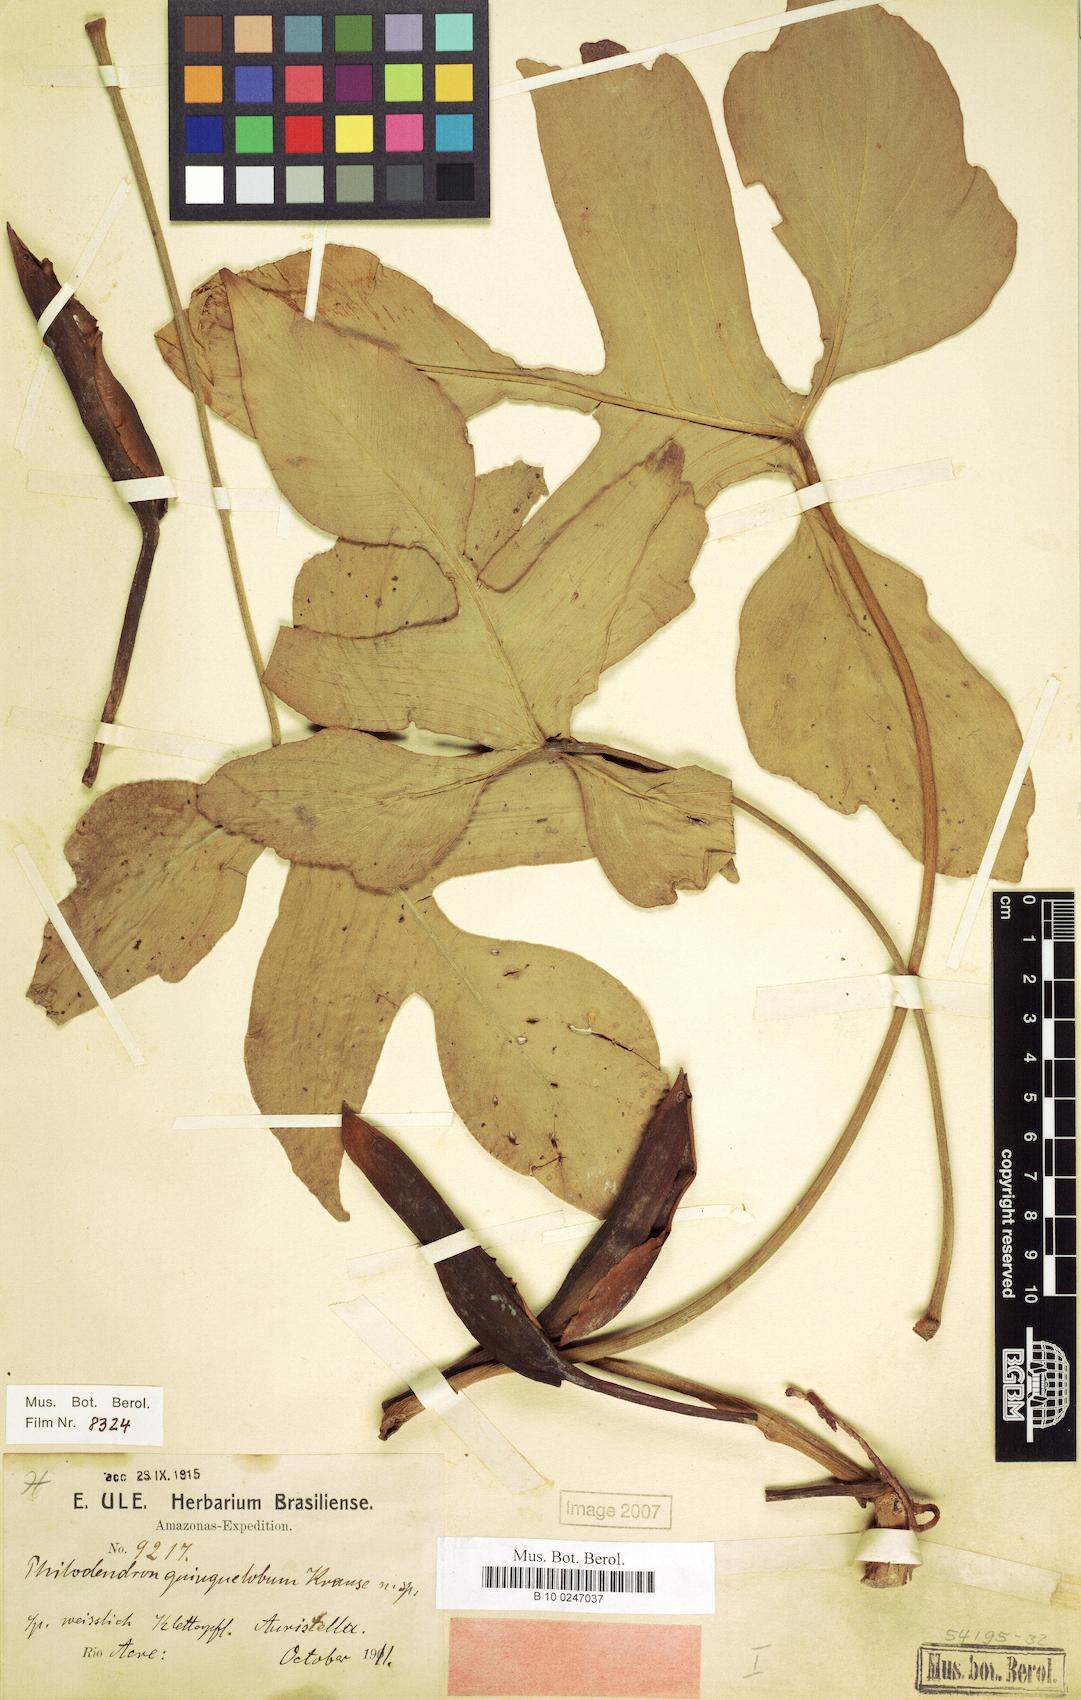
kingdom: Plantae
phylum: Tracheophyta
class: Liliopsida
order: Alismatales
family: Araceae
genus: Philodendron
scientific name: Philodendron quinquelobum
